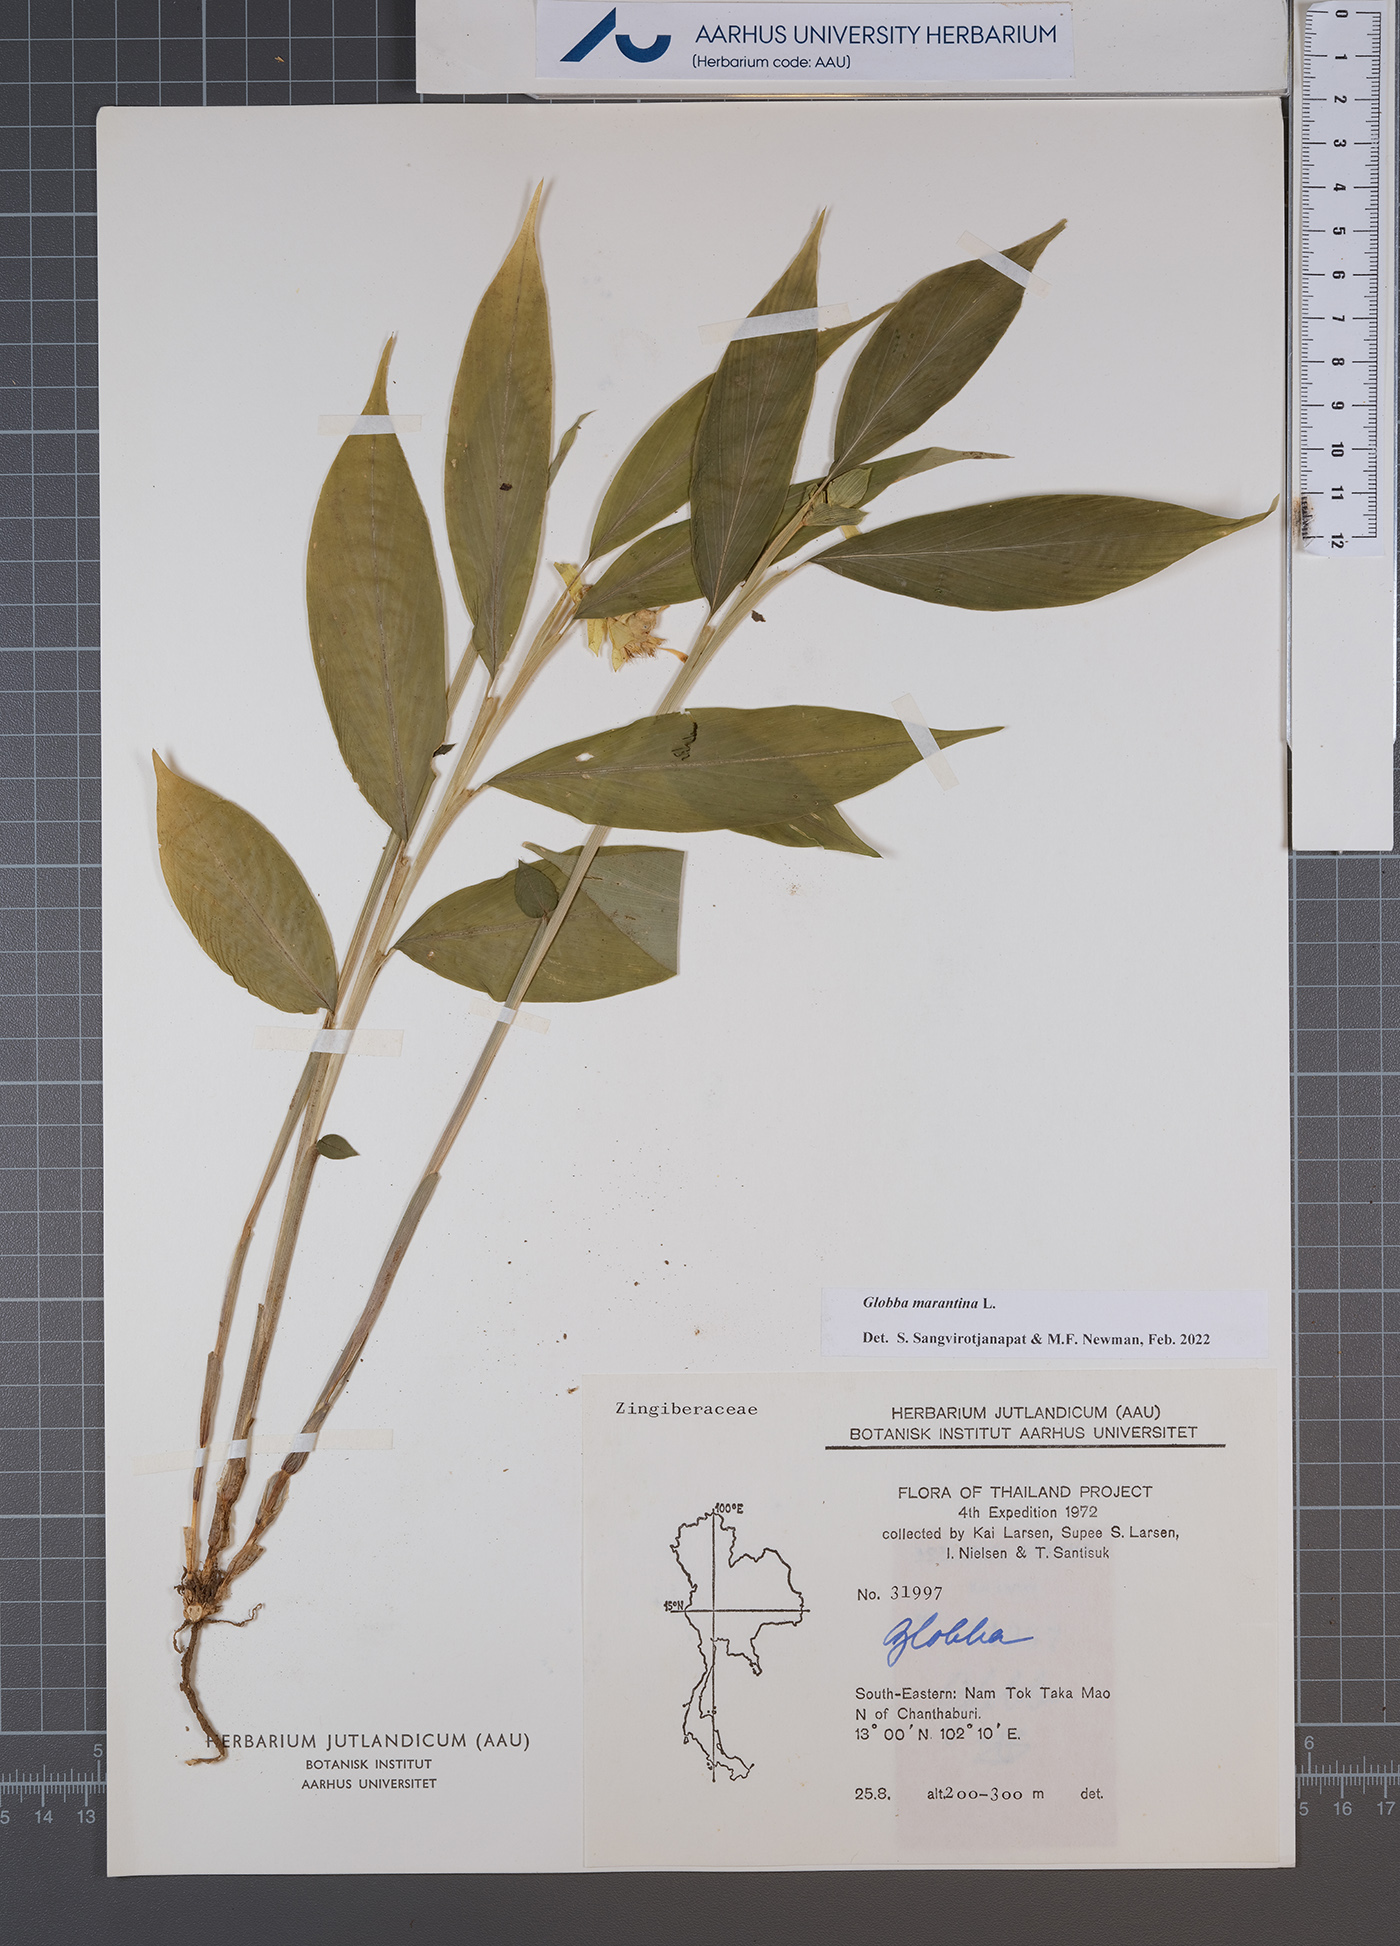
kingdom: Plantae
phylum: Tracheophyta
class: Liliopsida
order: Zingiberales
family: Zingiberaceae
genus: Globba
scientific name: Globba marantina
